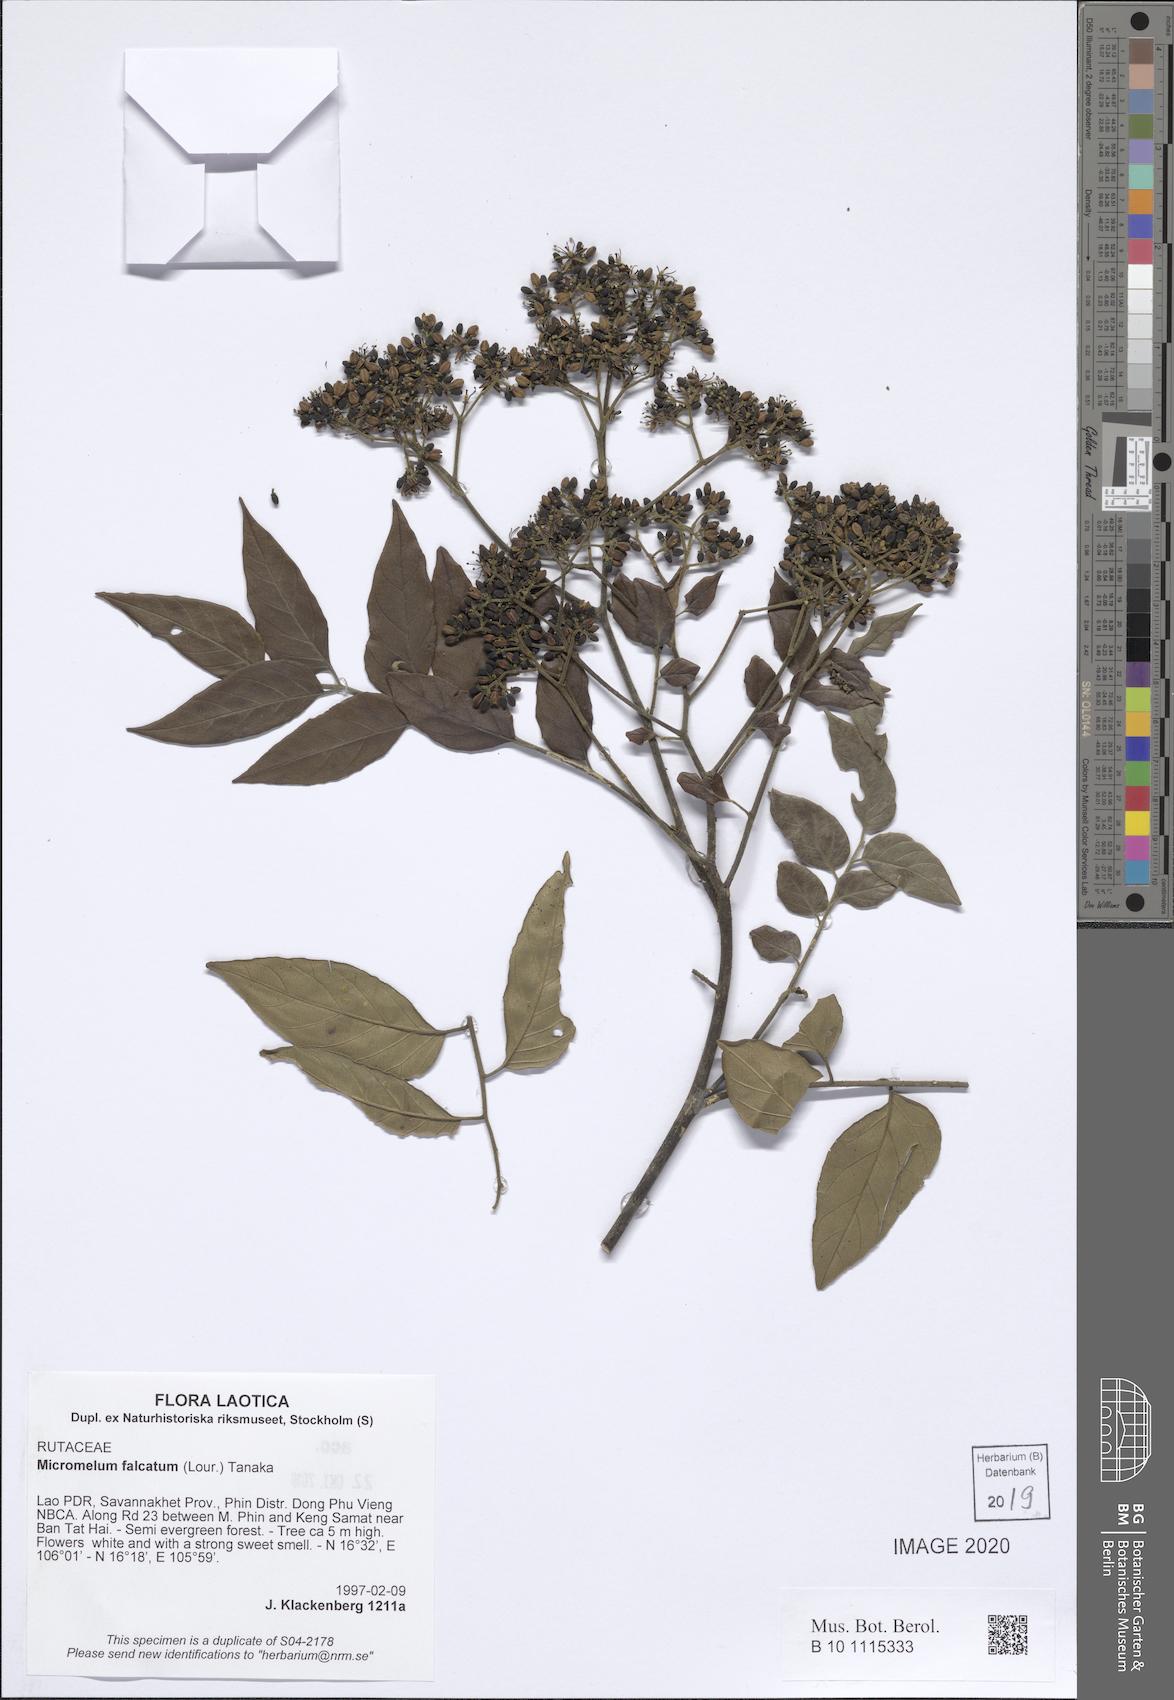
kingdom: Plantae
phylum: Tracheophyta
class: Magnoliopsida
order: Sapindales
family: Rutaceae
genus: Micromelum
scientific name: Micromelum falcatum
